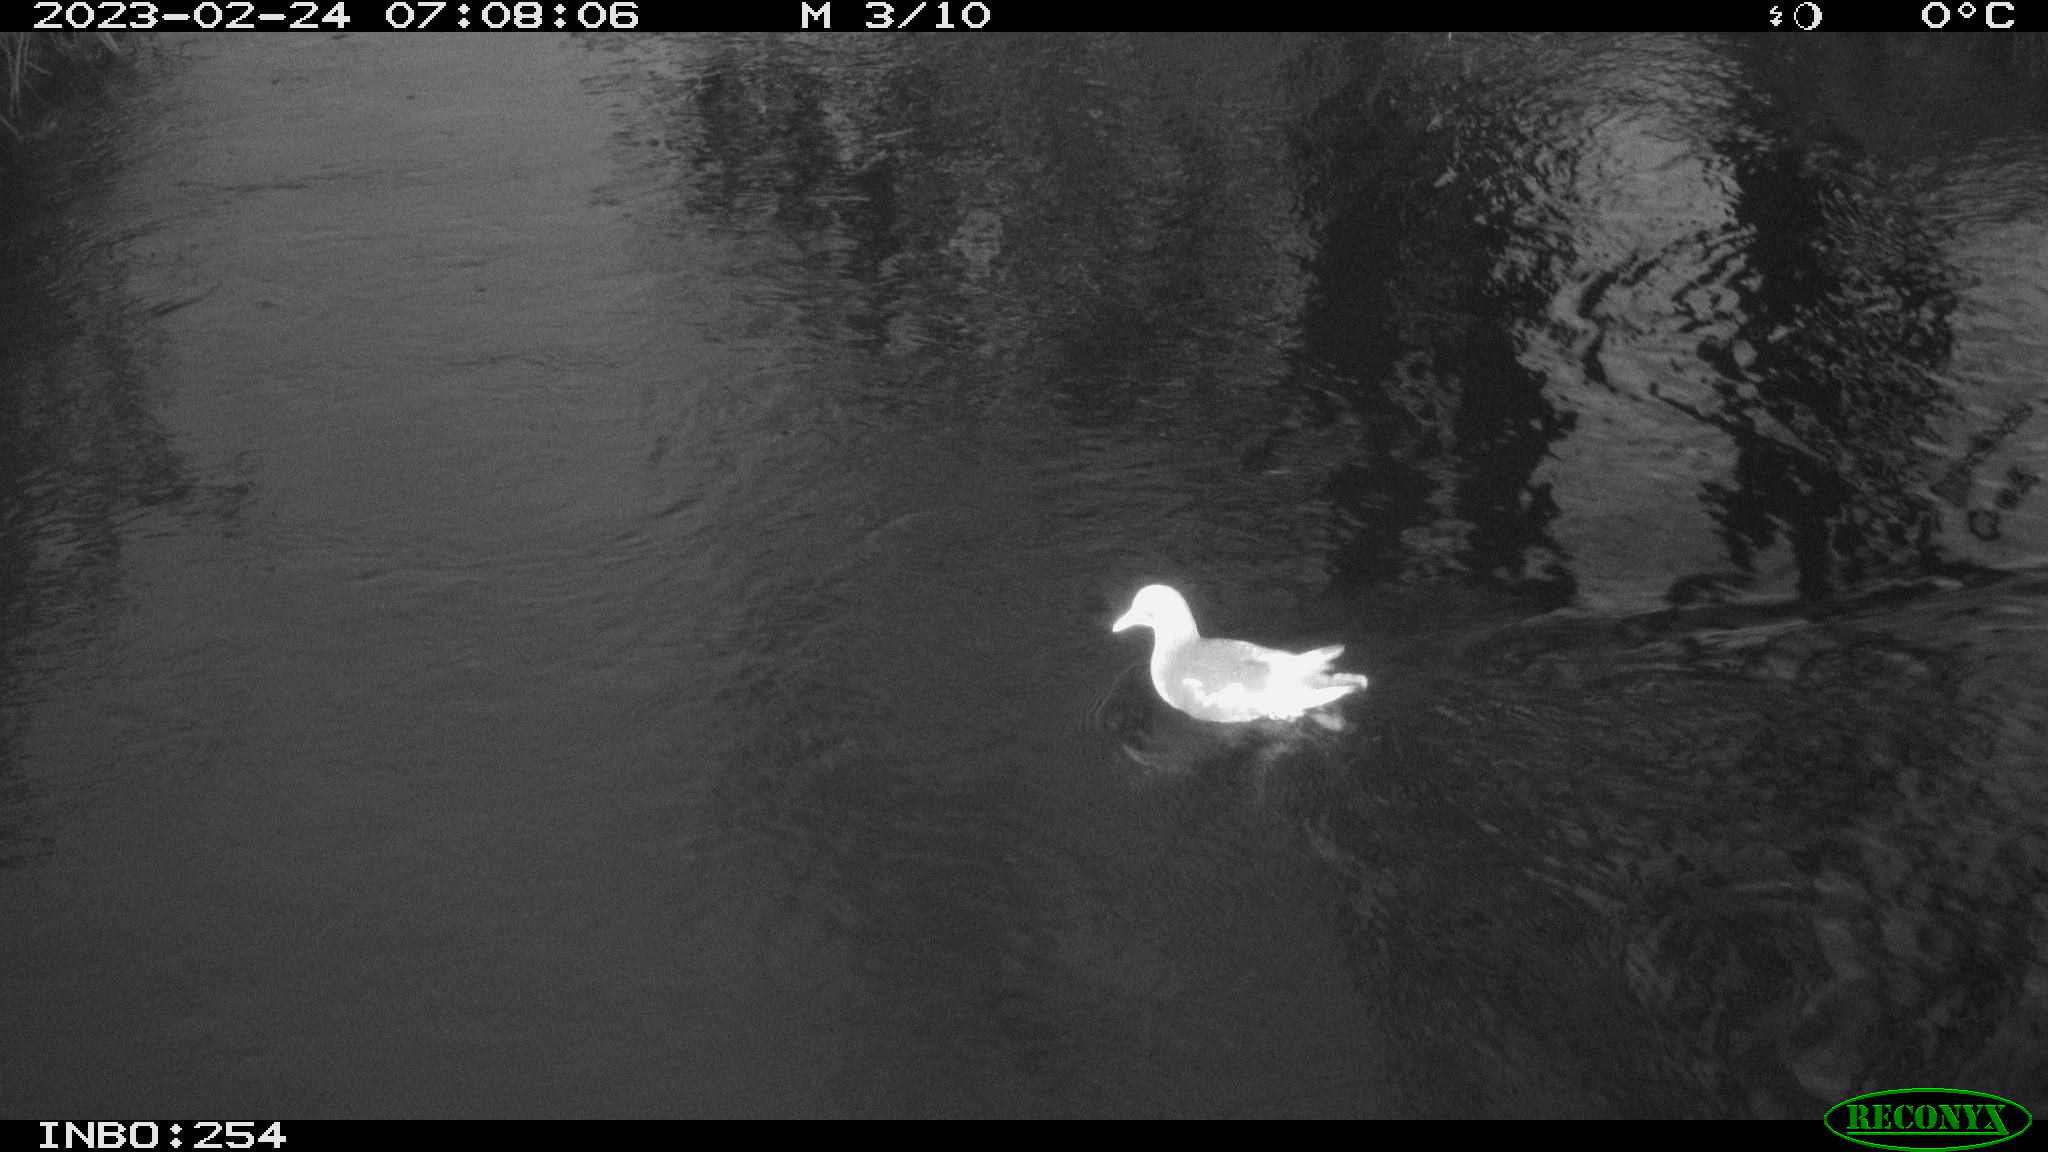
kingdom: Animalia
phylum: Chordata
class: Aves
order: Anseriformes
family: Anatidae
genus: Anas
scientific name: Anas
